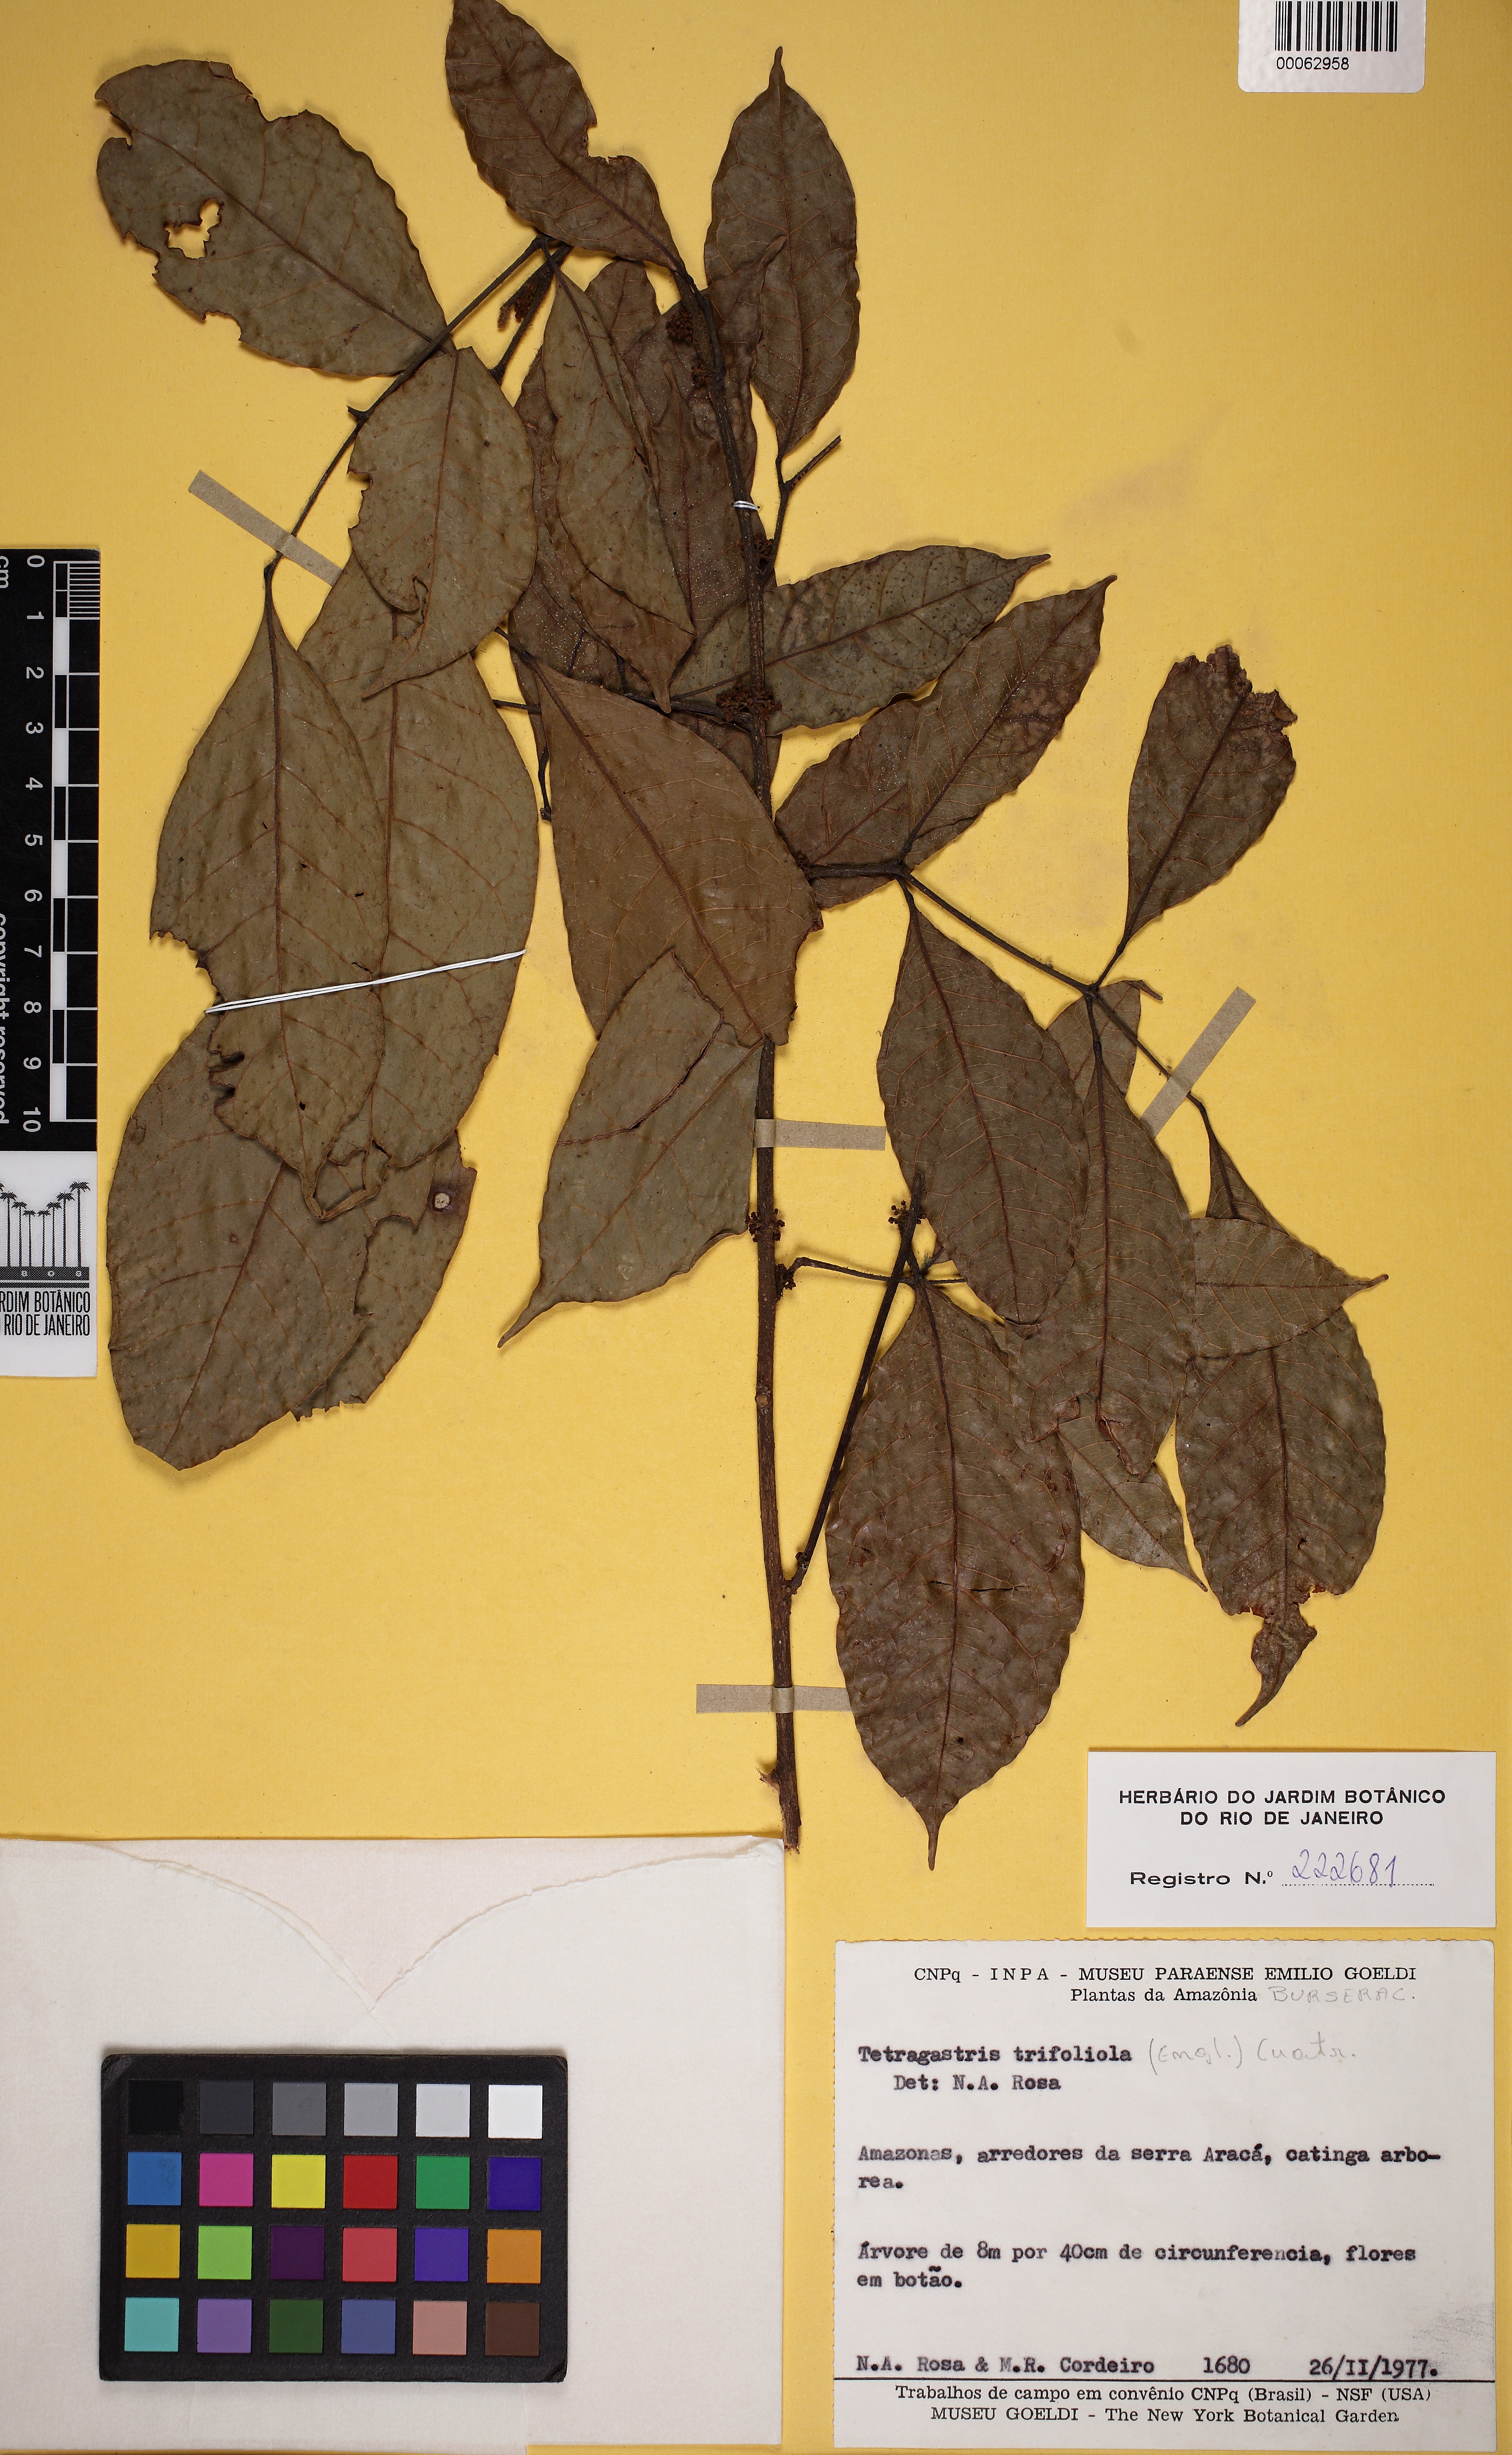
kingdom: Plantae
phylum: Tracheophyta
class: Magnoliopsida
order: Sapindales
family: Burseraceae
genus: Protium
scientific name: Protium trifoliolatum
